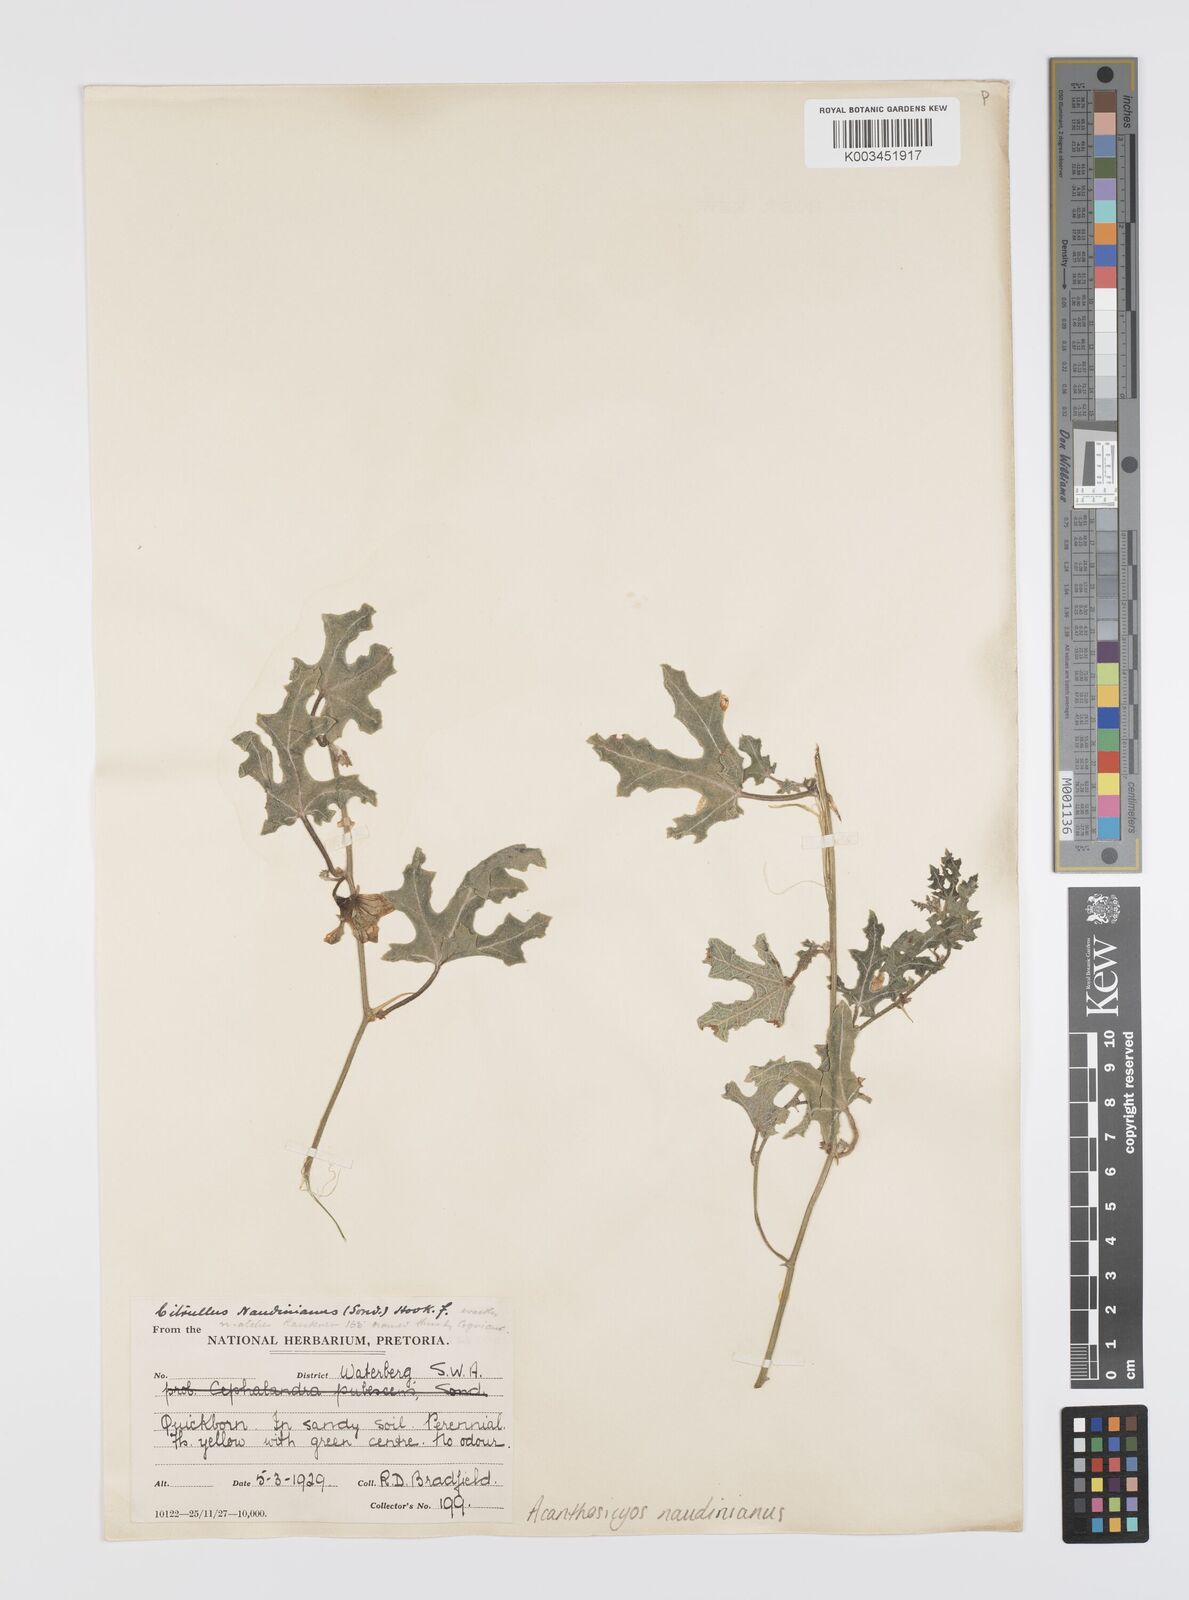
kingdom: Plantae
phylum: Tracheophyta
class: Magnoliopsida
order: Cucurbitales
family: Cucurbitaceae
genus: Citrullus
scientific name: Citrullus naudinianus
